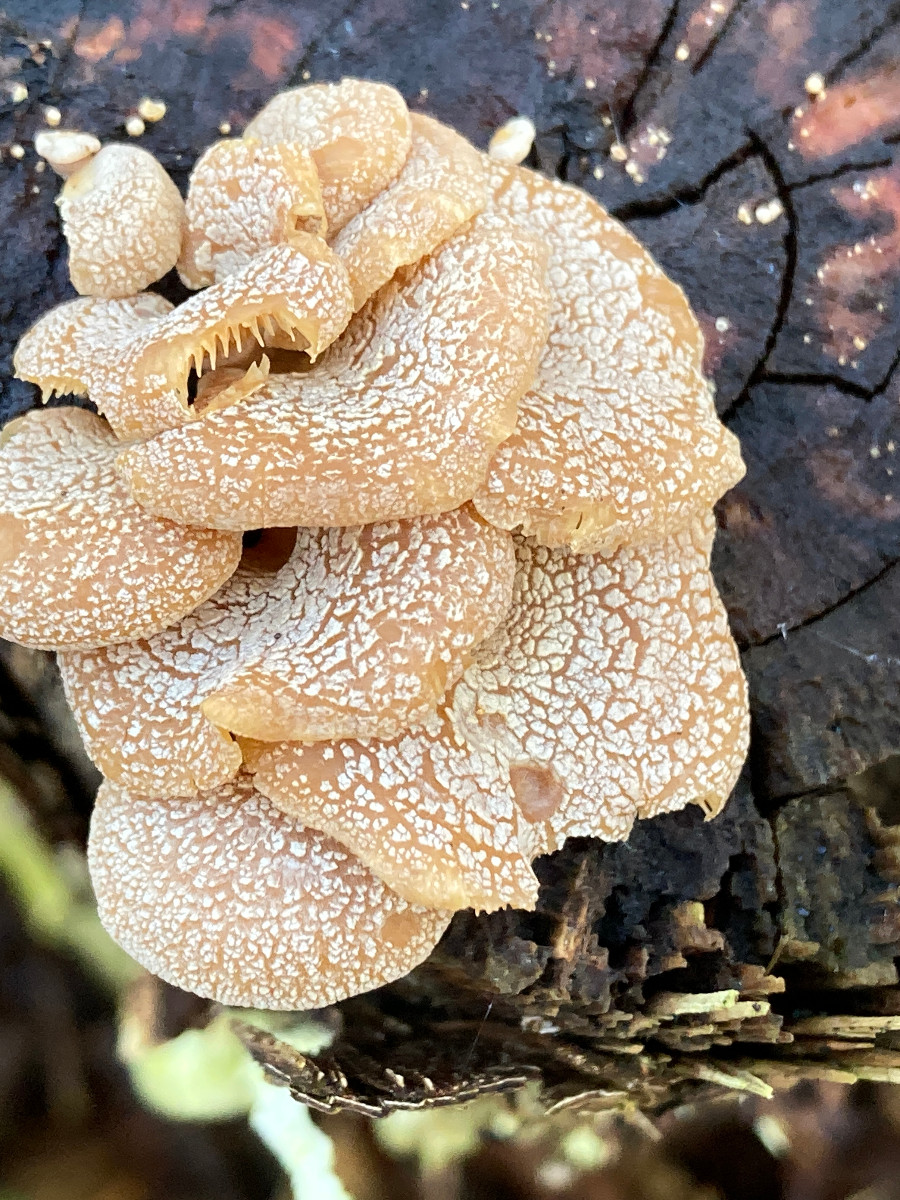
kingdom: Fungi
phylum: Basidiomycota
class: Agaricomycetes
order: Agaricales
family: Mycenaceae
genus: Panellus
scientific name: Panellus stipticus
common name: kliddet epaulethat
